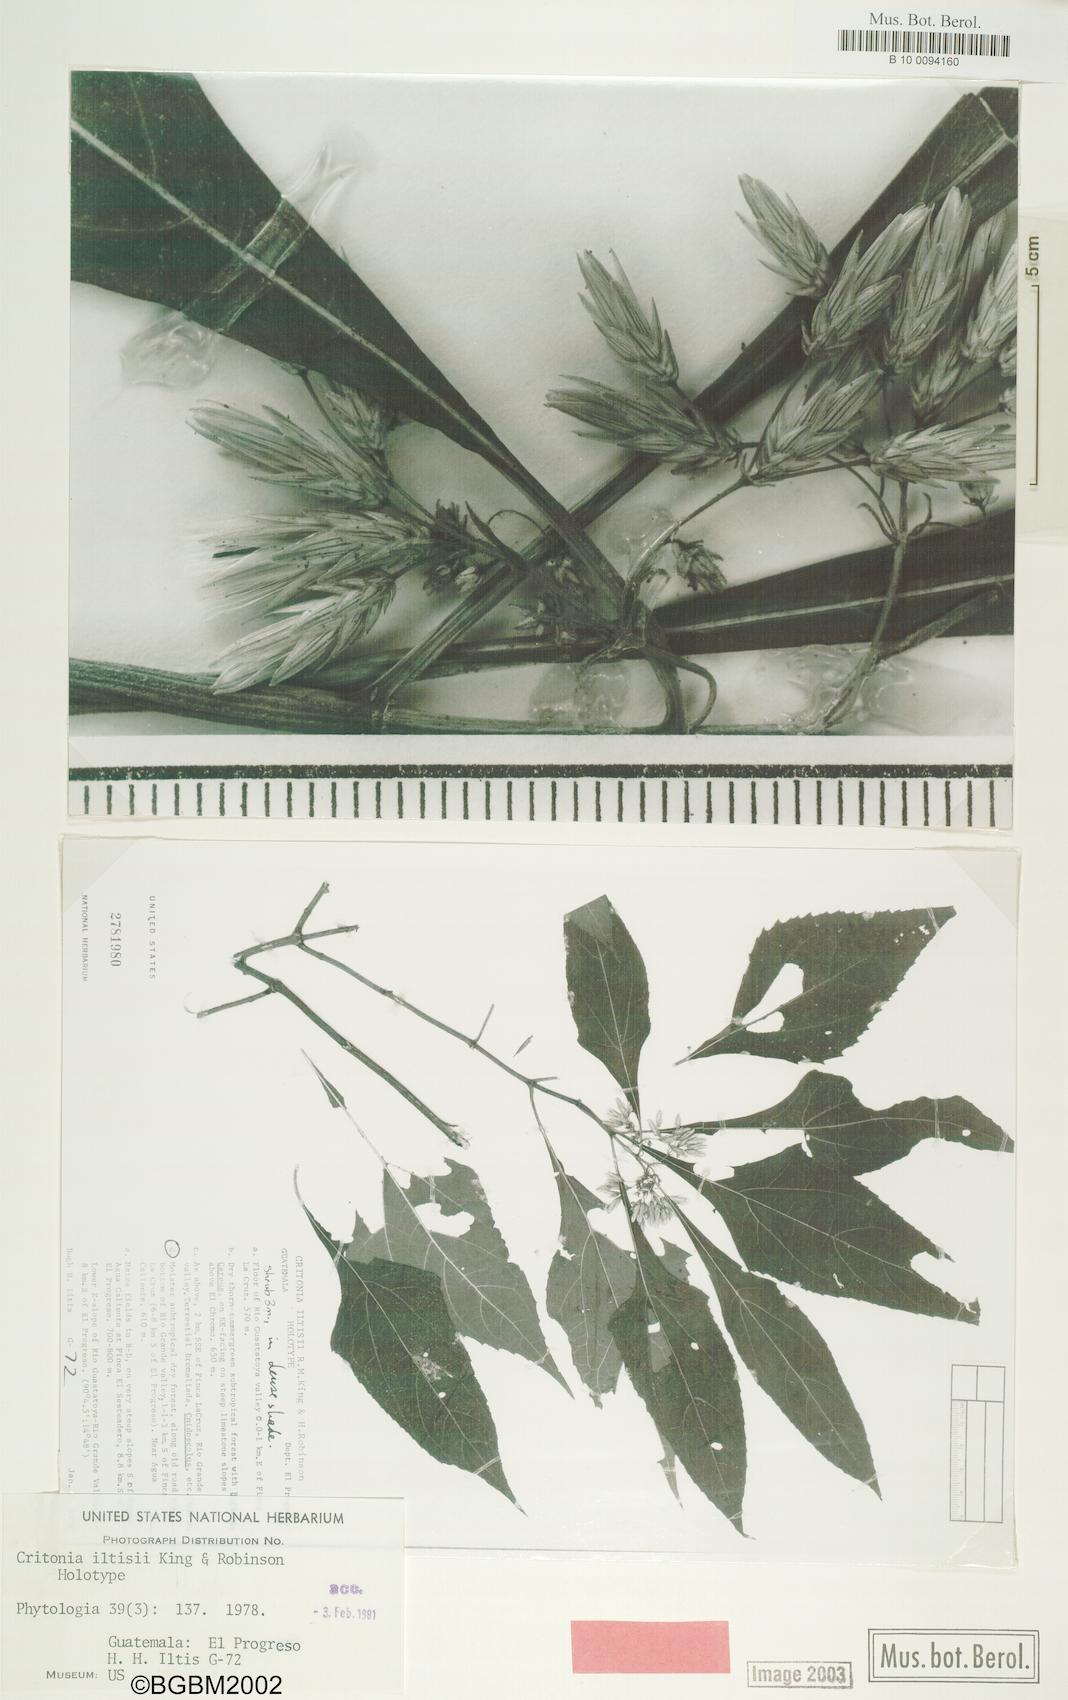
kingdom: Plantae
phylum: Tracheophyta
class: Magnoliopsida
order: Asterales
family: Asteraceae
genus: Kyrsteniopsis
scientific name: Kyrsteniopsis iltisii
